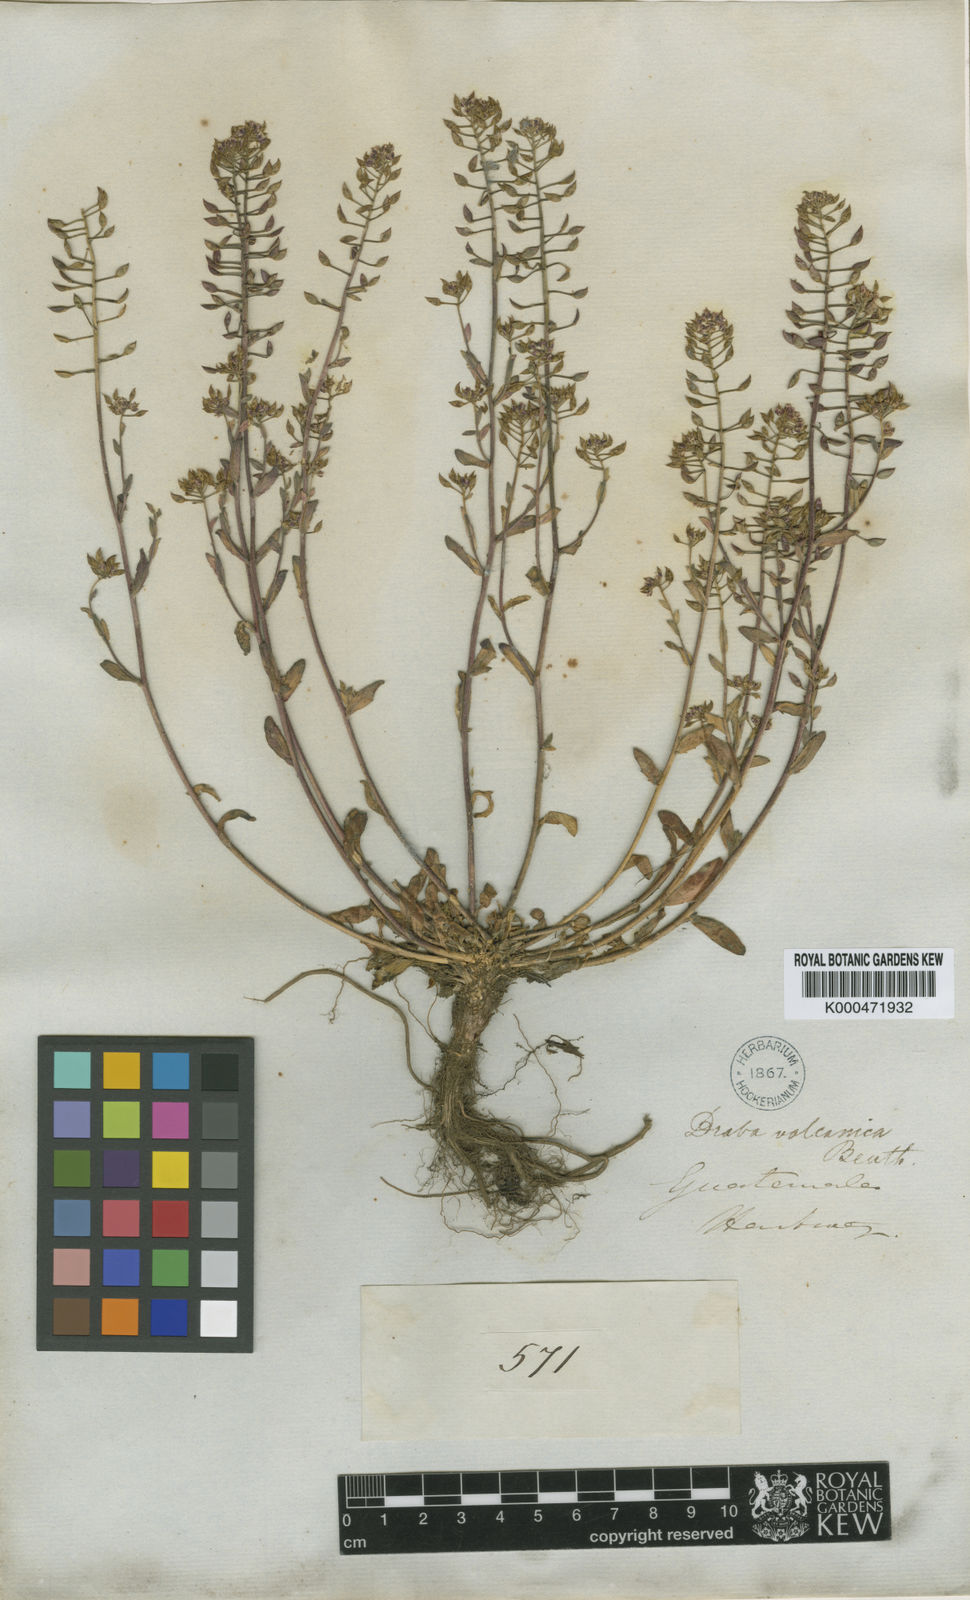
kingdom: Plantae
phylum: Tracheophyta
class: Magnoliopsida
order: Brassicales
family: Brassicaceae
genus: Draba
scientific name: Draba jorullensis
